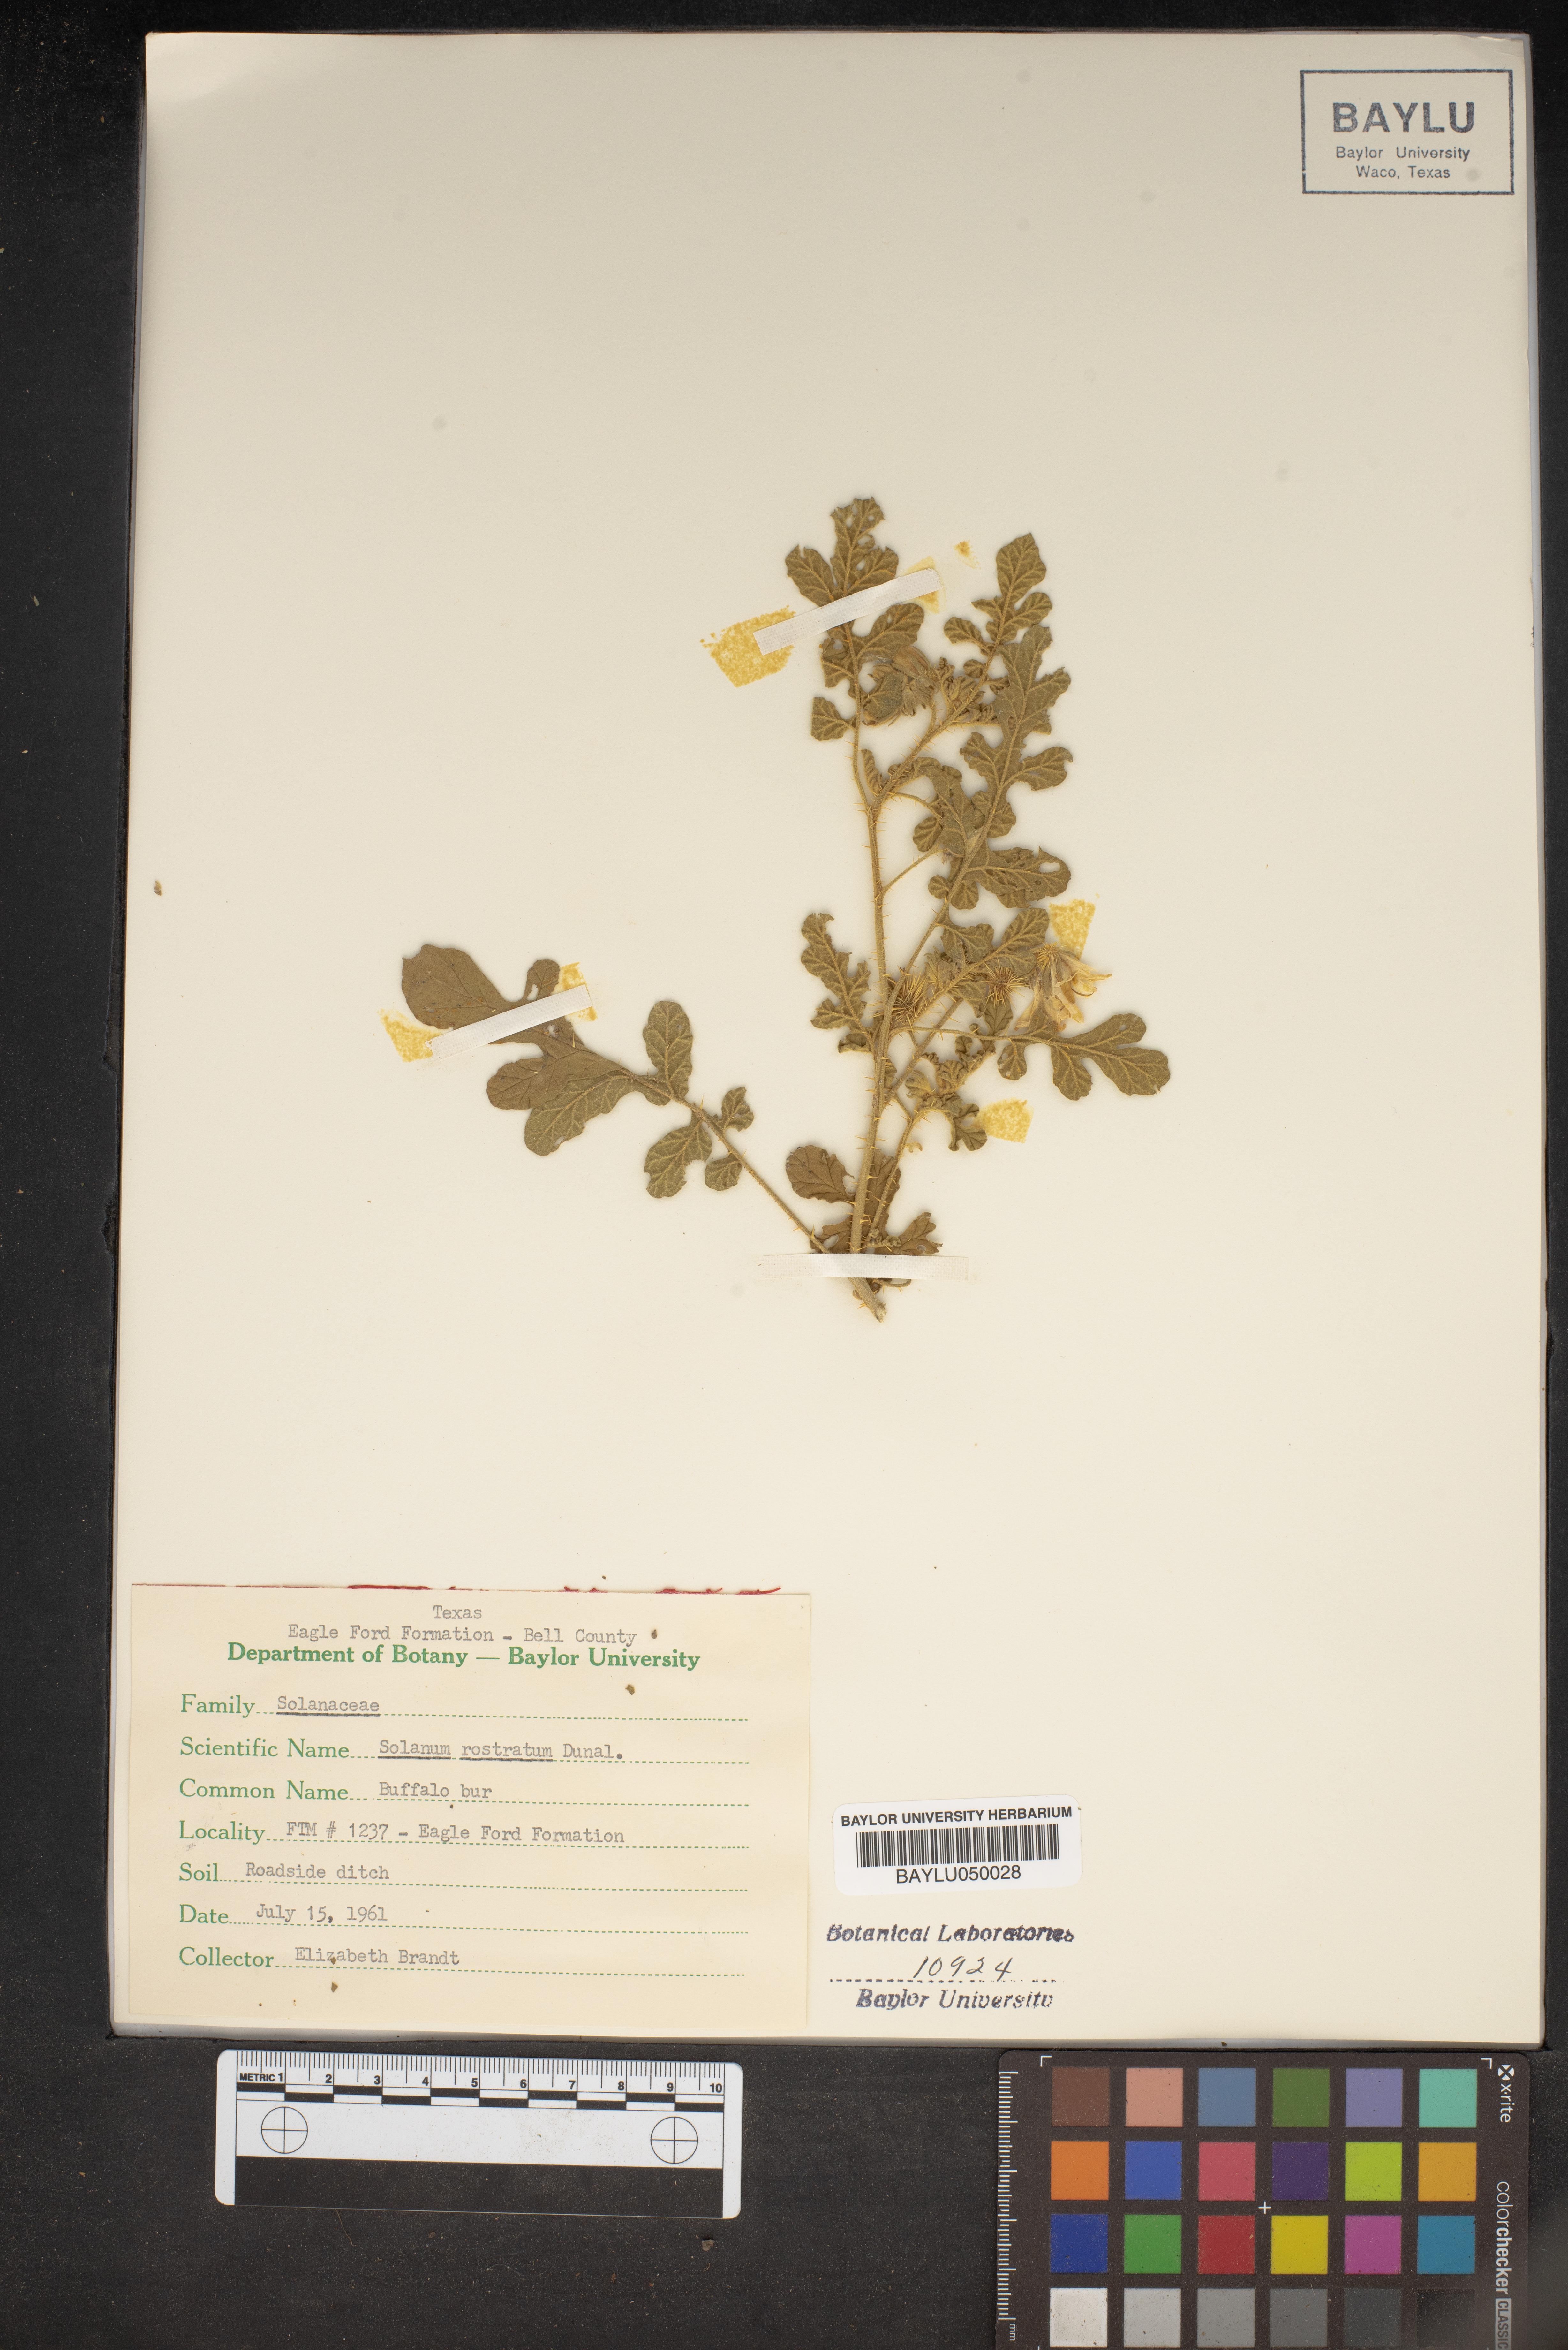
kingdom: Plantae
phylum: Tracheophyta
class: Magnoliopsida
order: Solanales
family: Solanaceae
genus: Solanum
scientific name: Solanum angustifolium
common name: Buffalobur nightshade
